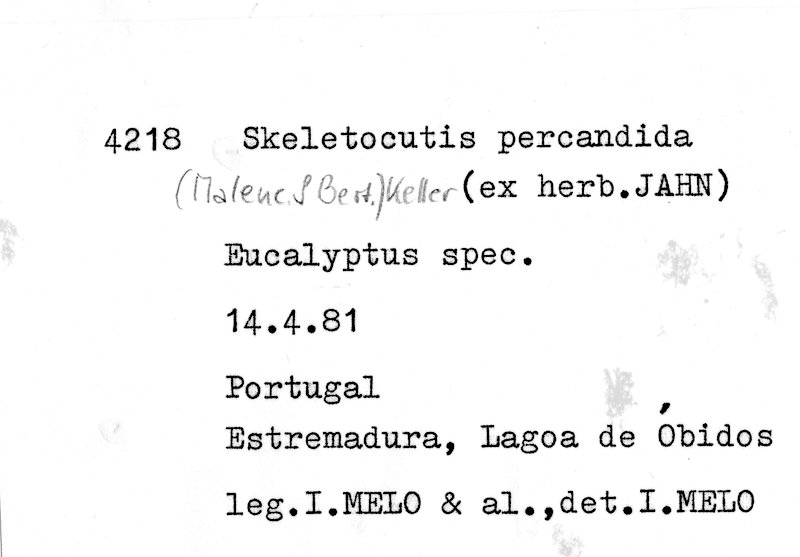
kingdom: Fungi
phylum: Basidiomycota
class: Agaricomycetes
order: Polyporales
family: Incrustoporiaceae
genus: Skeletocutis
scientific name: Skeletocutis percandida
